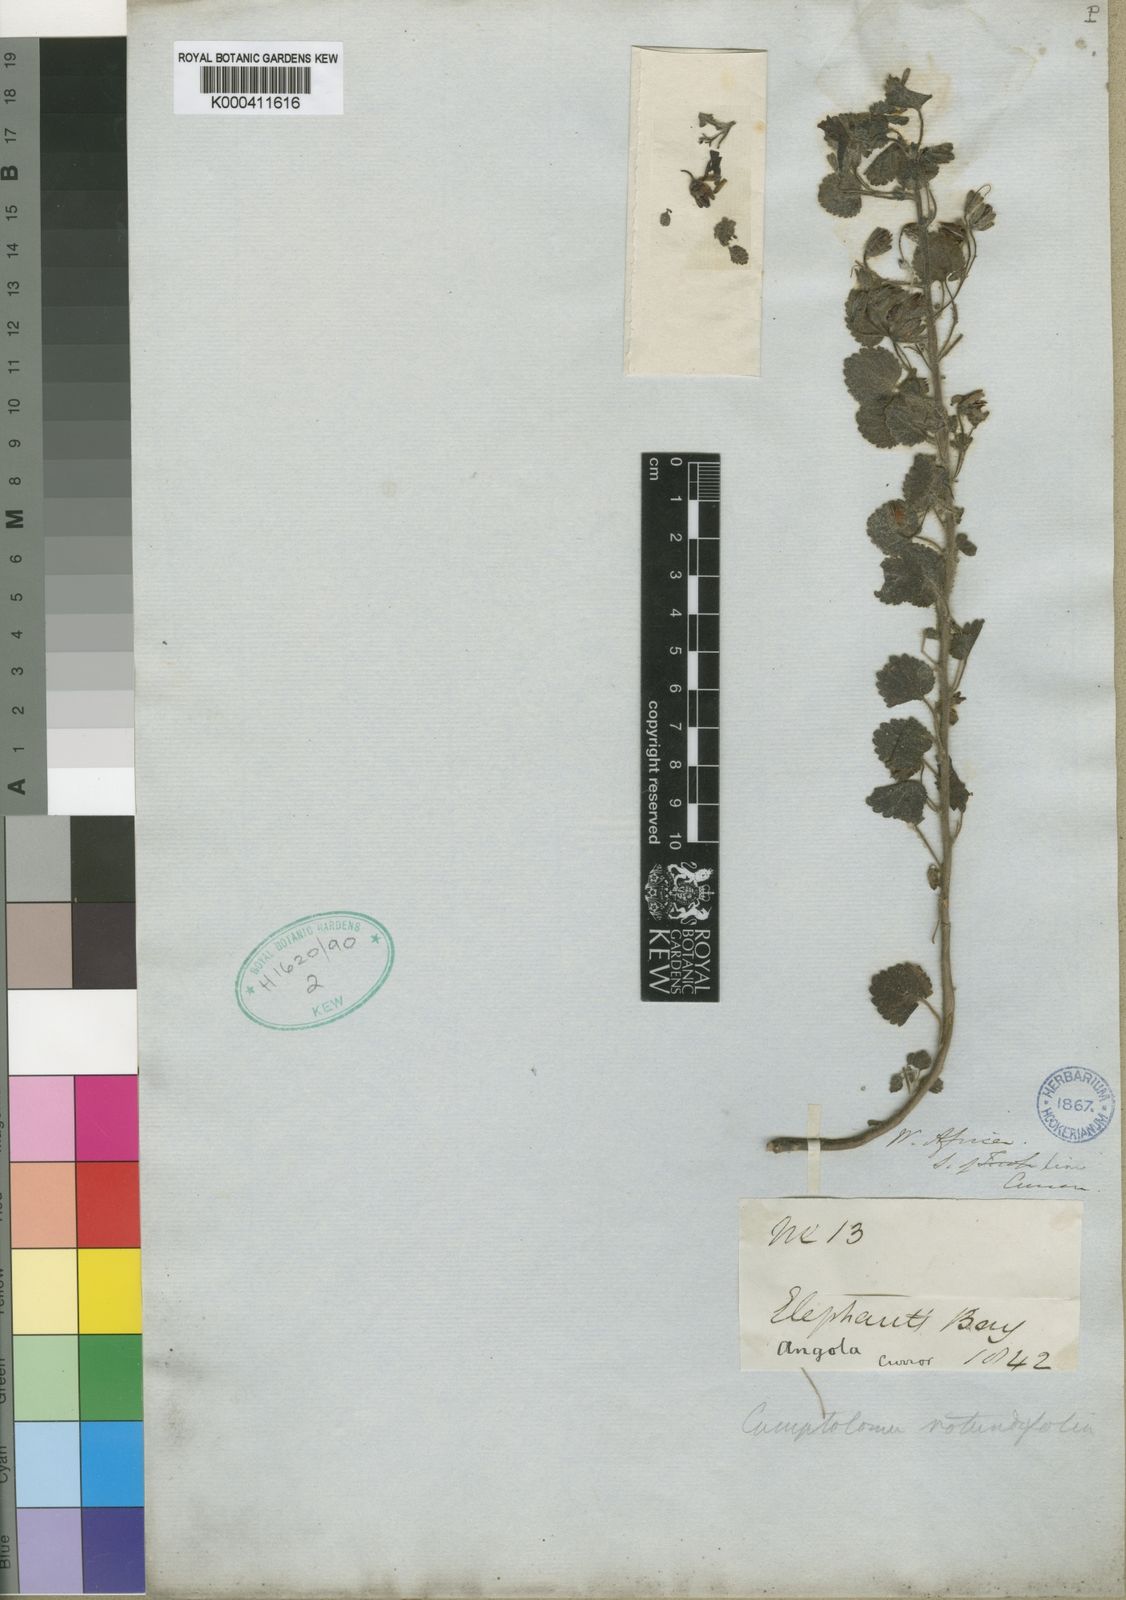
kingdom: Plantae
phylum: Tracheophyta
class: Magnoliopsida
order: Lamiales
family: Scrophulariaceae
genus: Camptoloma
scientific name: Camptoloma rotundifolium
